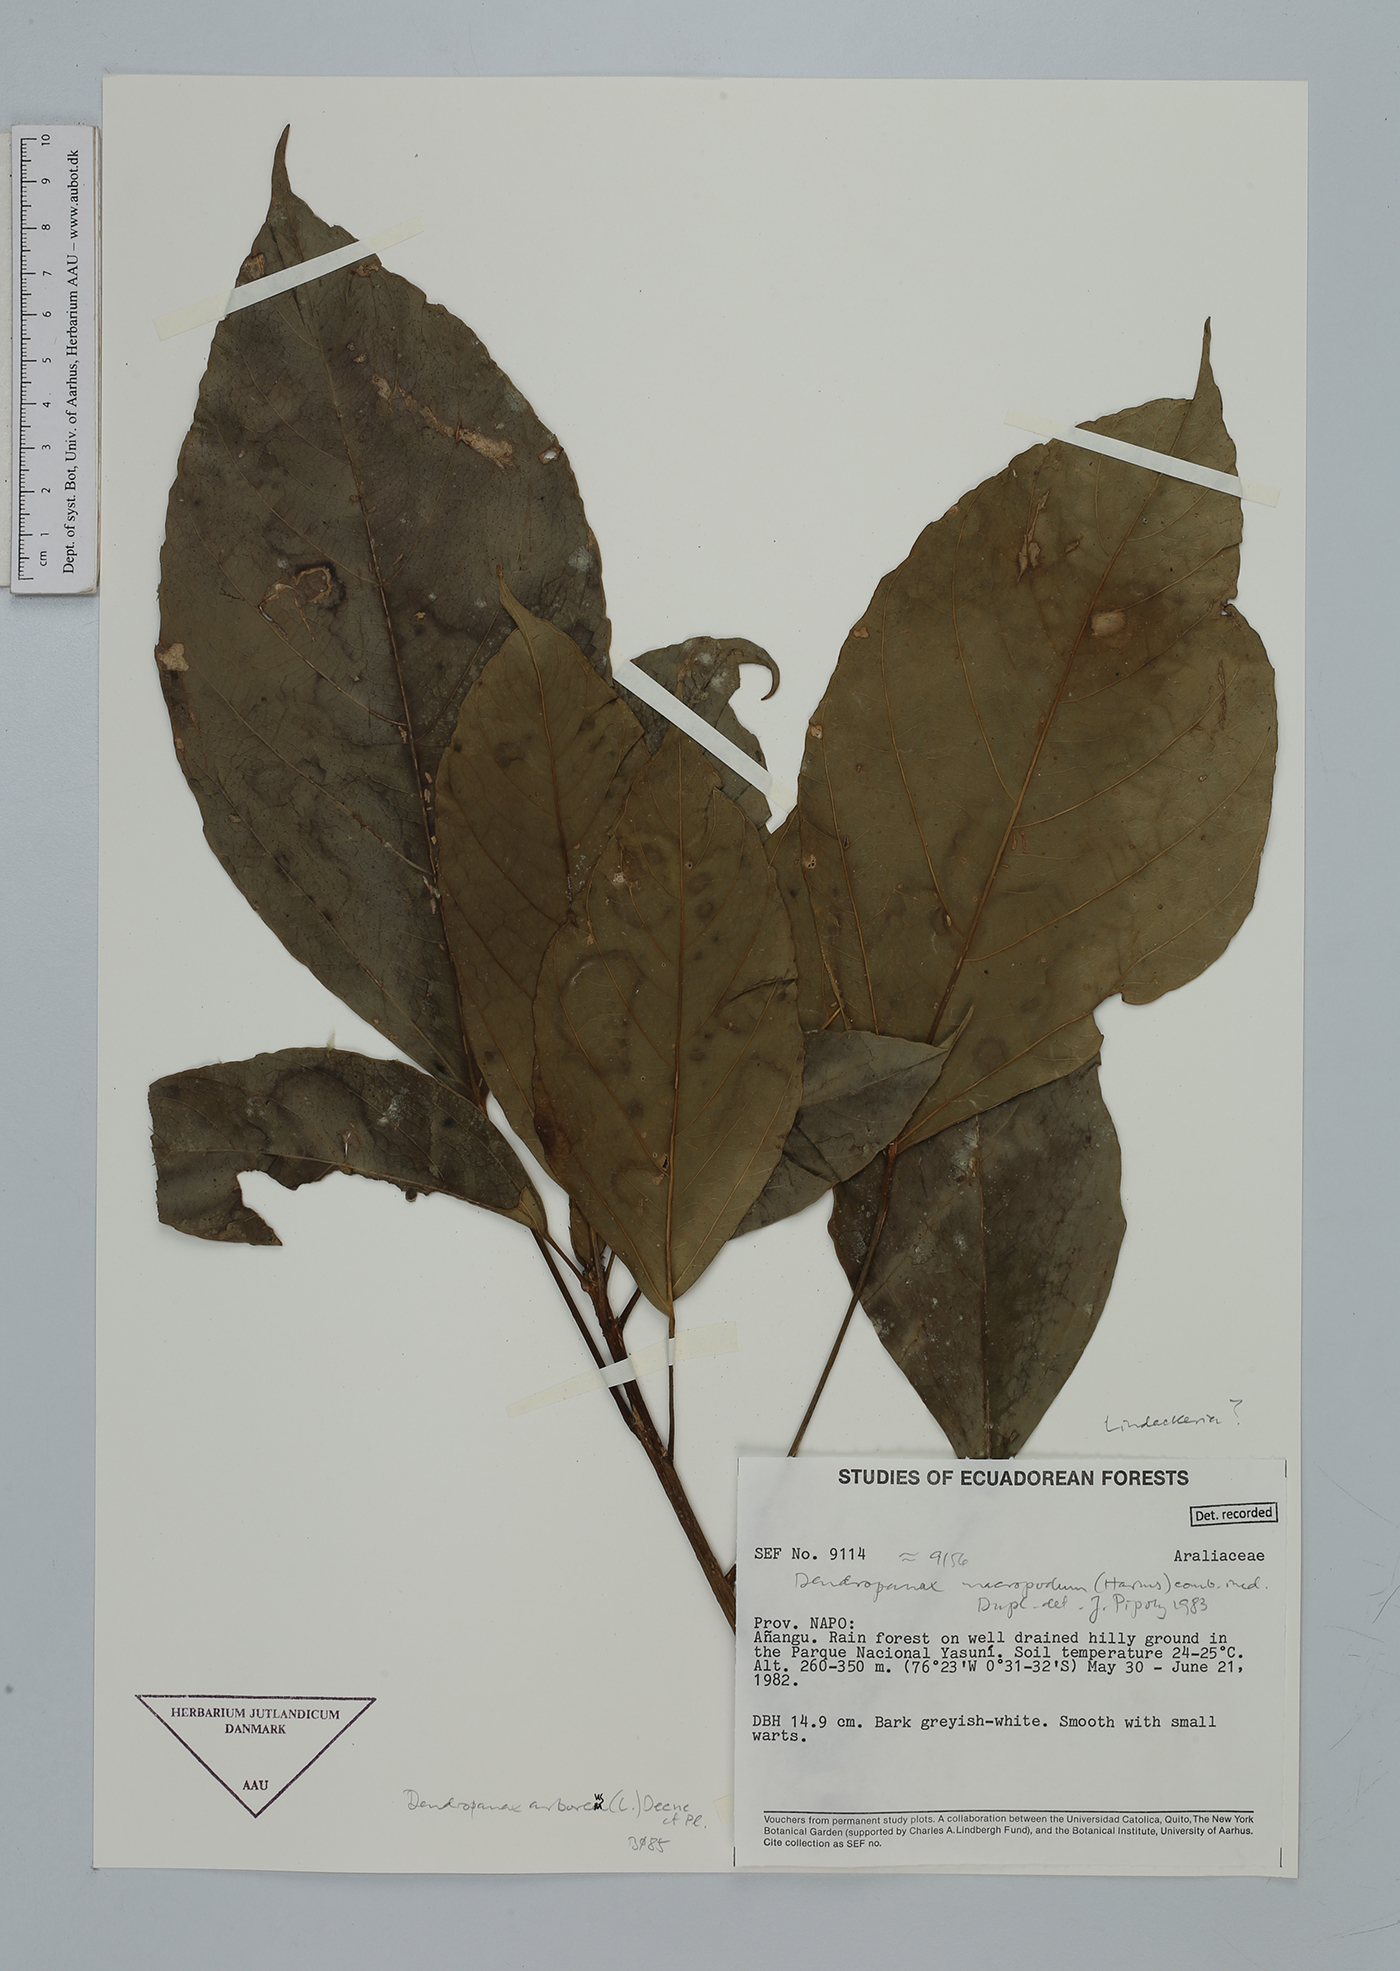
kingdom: Plantae
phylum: Tracheophyta
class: Magnoliopsida
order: Apiales
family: Araliaceae
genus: Dendropanax
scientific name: Dendropanax arboreus
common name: Potato-wood
